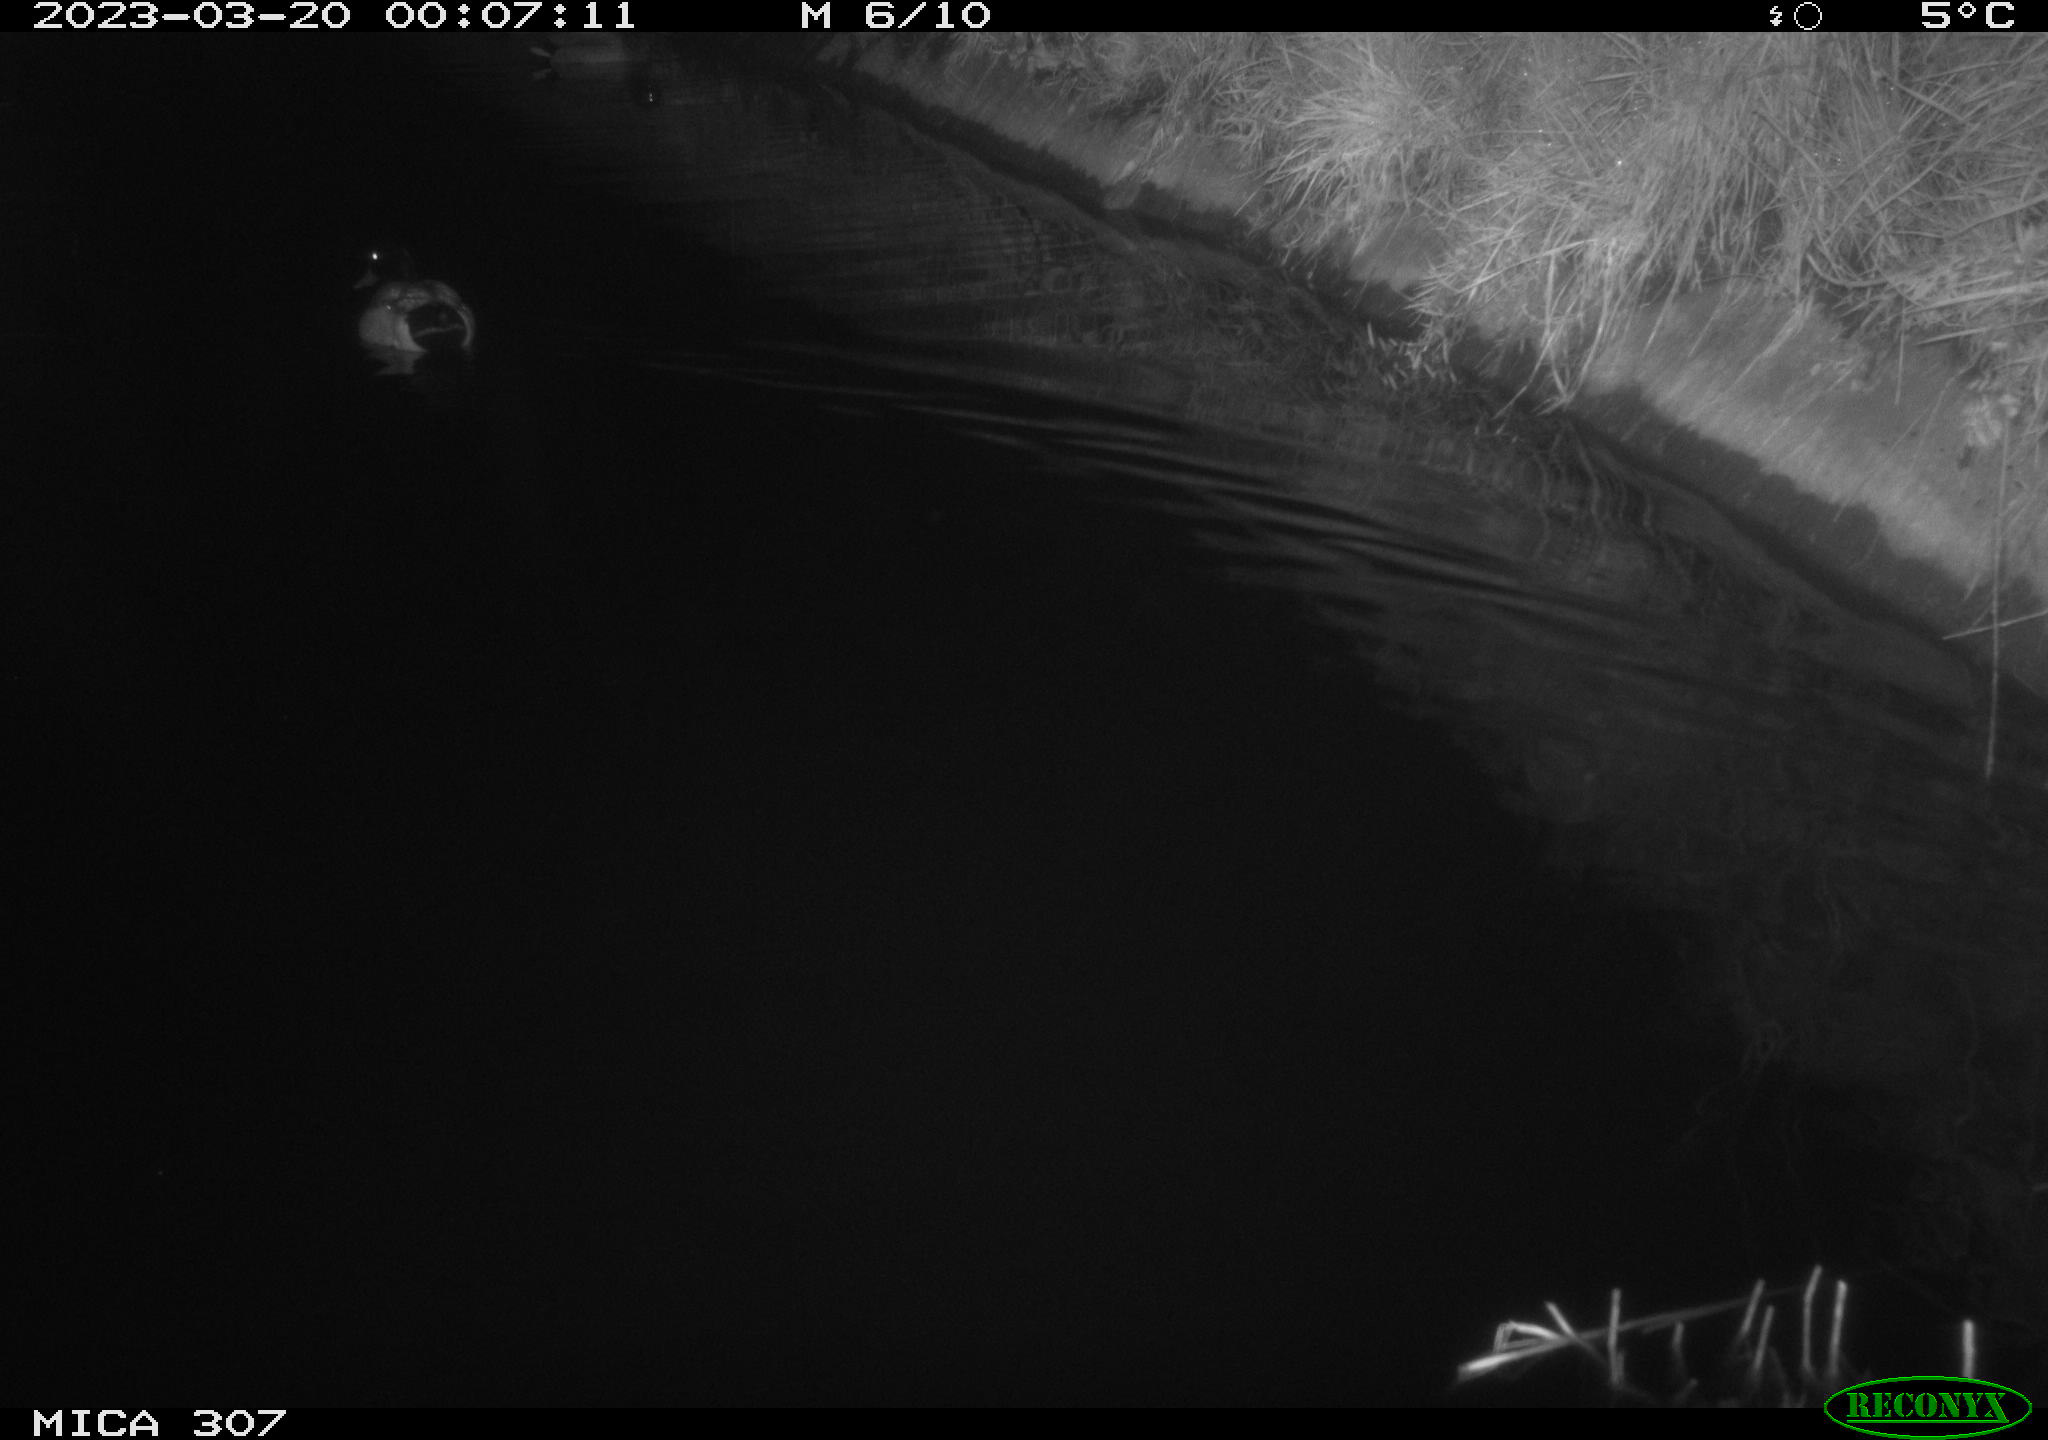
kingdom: Animalia
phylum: Chordata
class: Aves
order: Anseriformes
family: Anatidae
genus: Anas
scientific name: Anas
